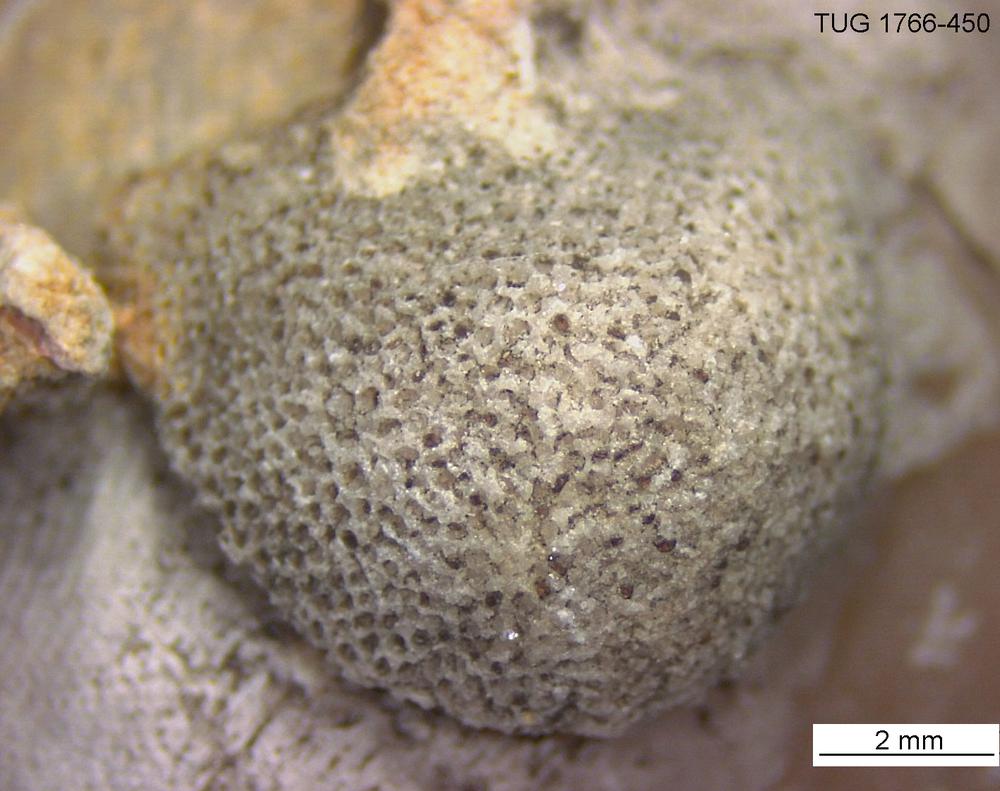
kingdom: Animalia
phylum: Bryozoa
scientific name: Bryozoa
